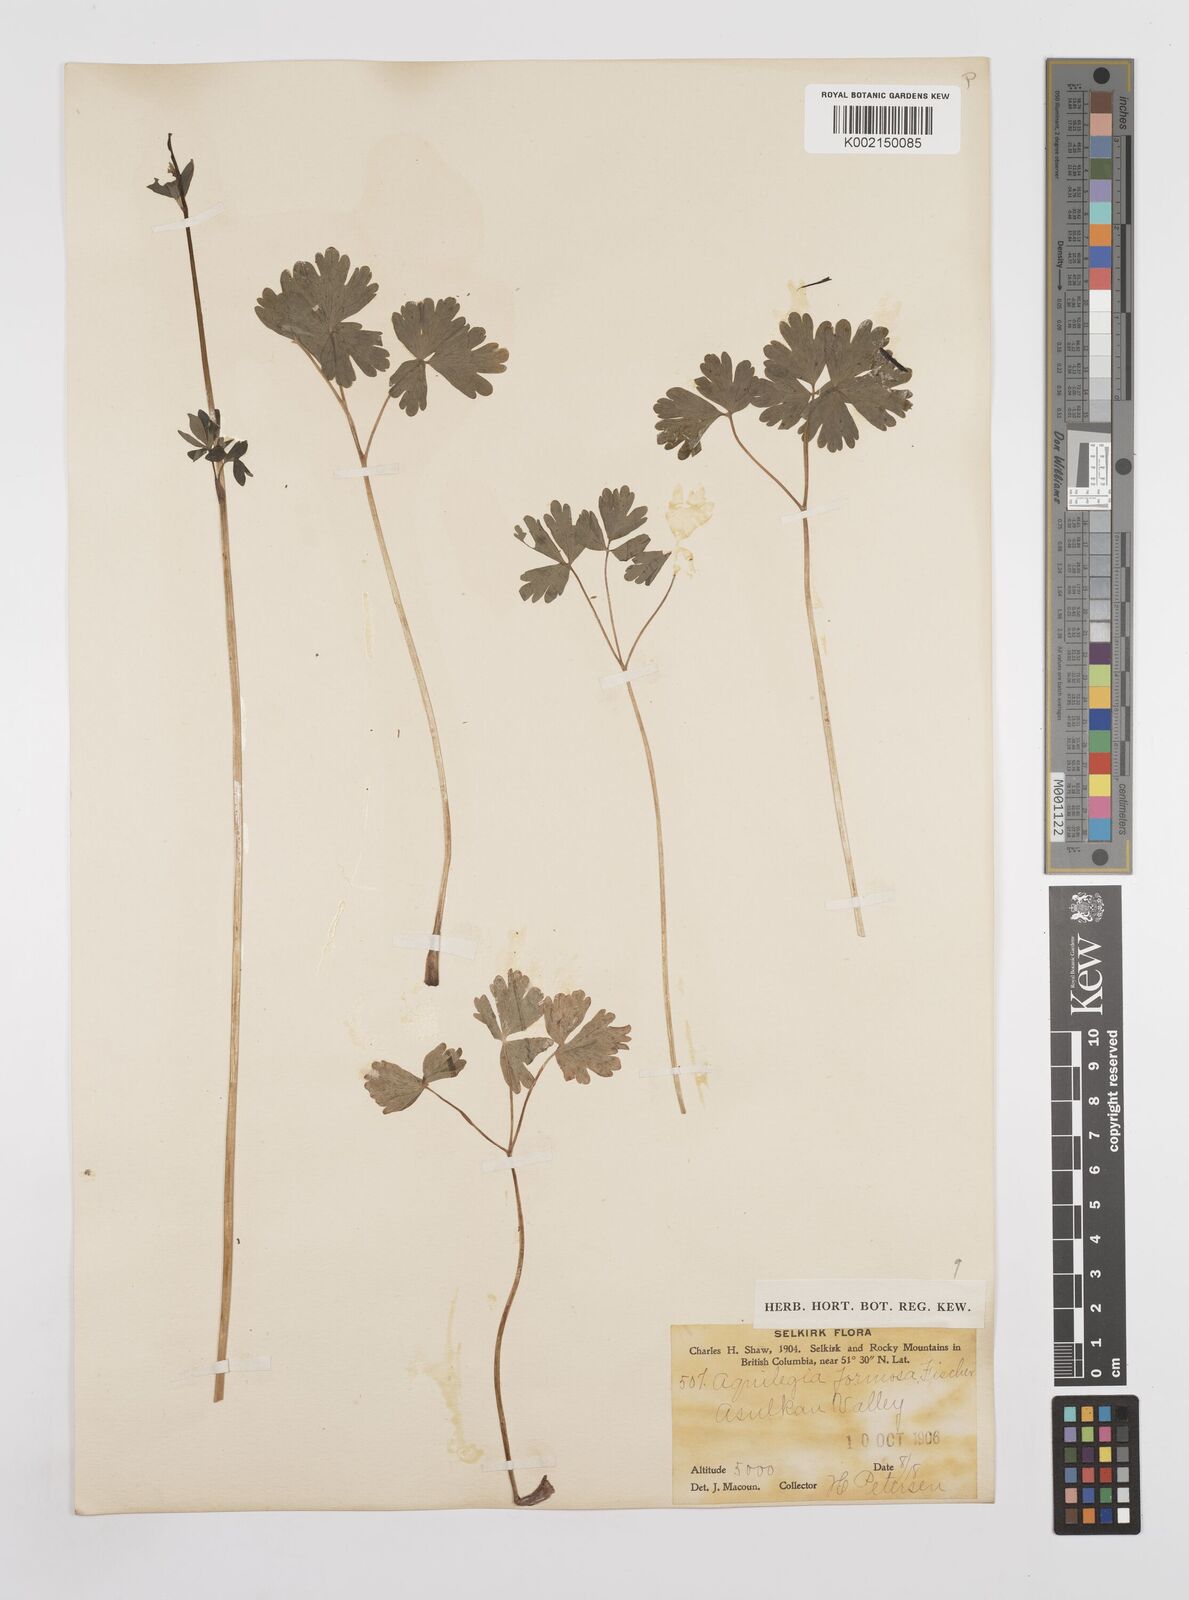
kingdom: Plantae
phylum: Tracheophyta
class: Magnoliopsida
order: Ranunculales
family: Ranunculaceae
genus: Aquilegia
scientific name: Aquilegia
